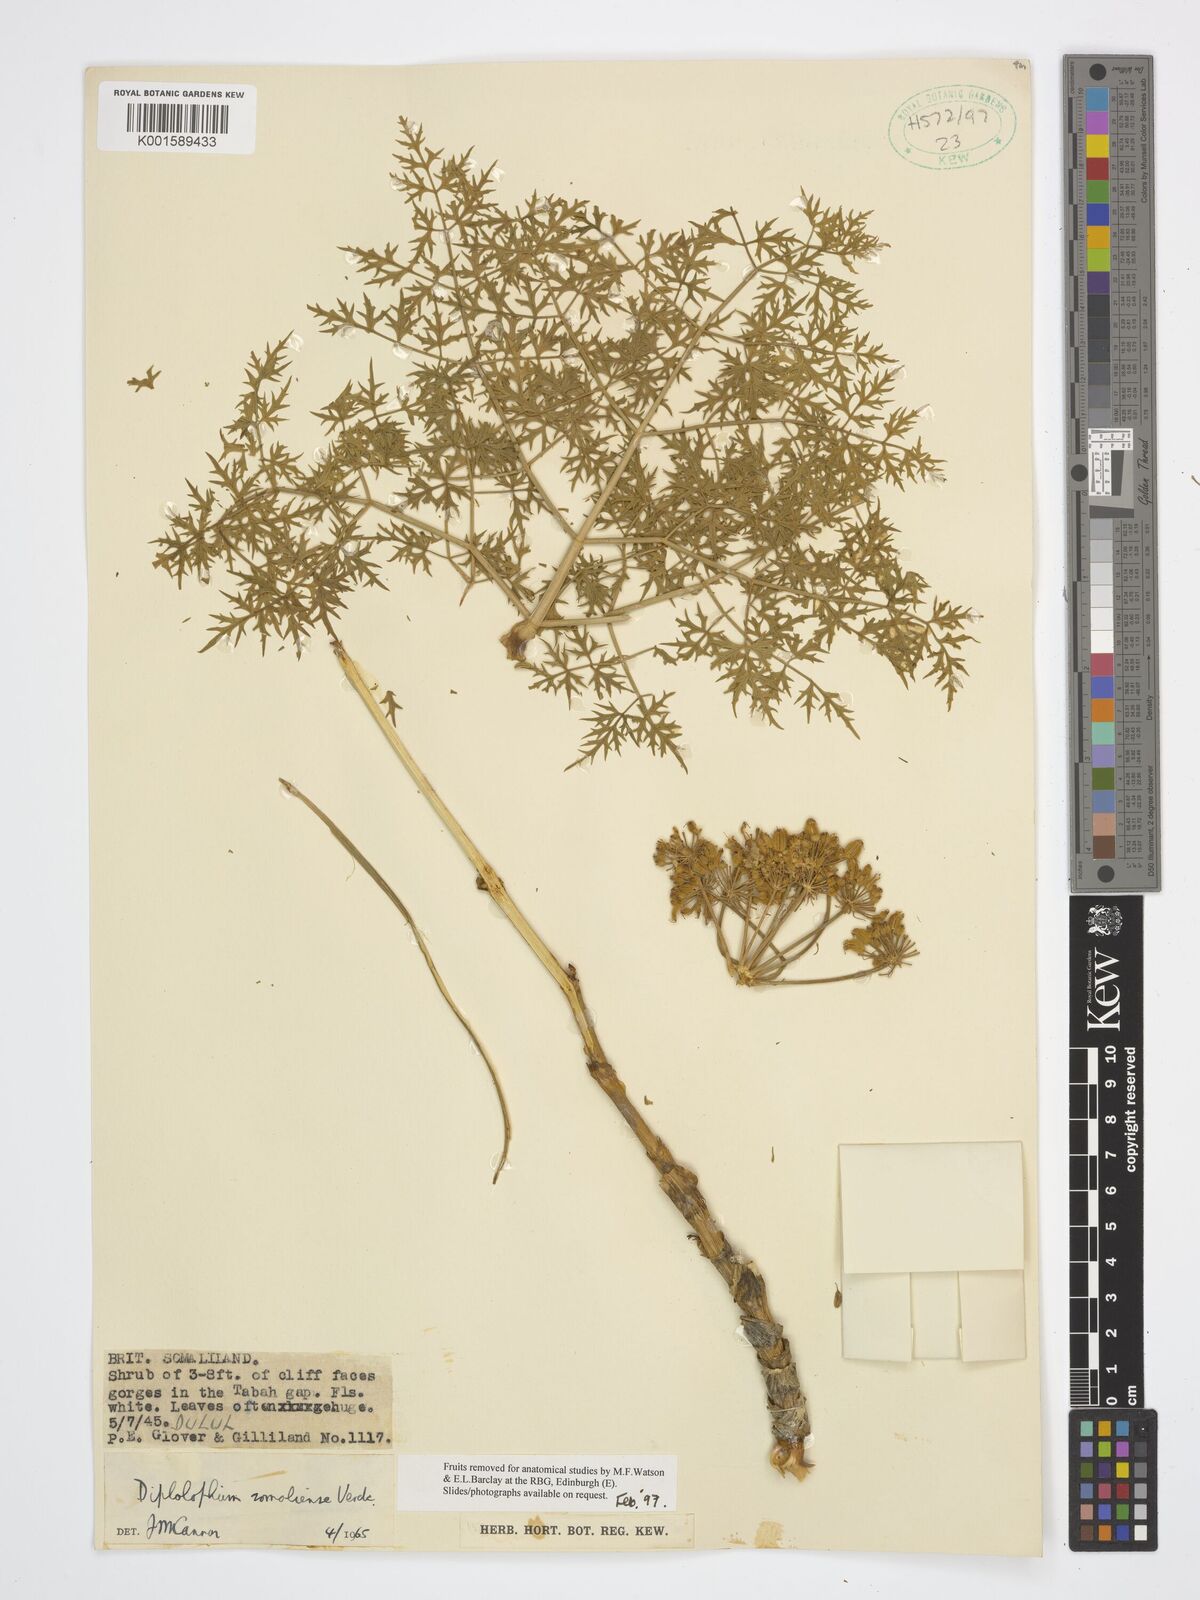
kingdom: Plantae
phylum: Tracheophyta
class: Magnoliopsida
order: Apiales
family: Apiaceae
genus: Diplolophium
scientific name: Diplolophium somaliense
